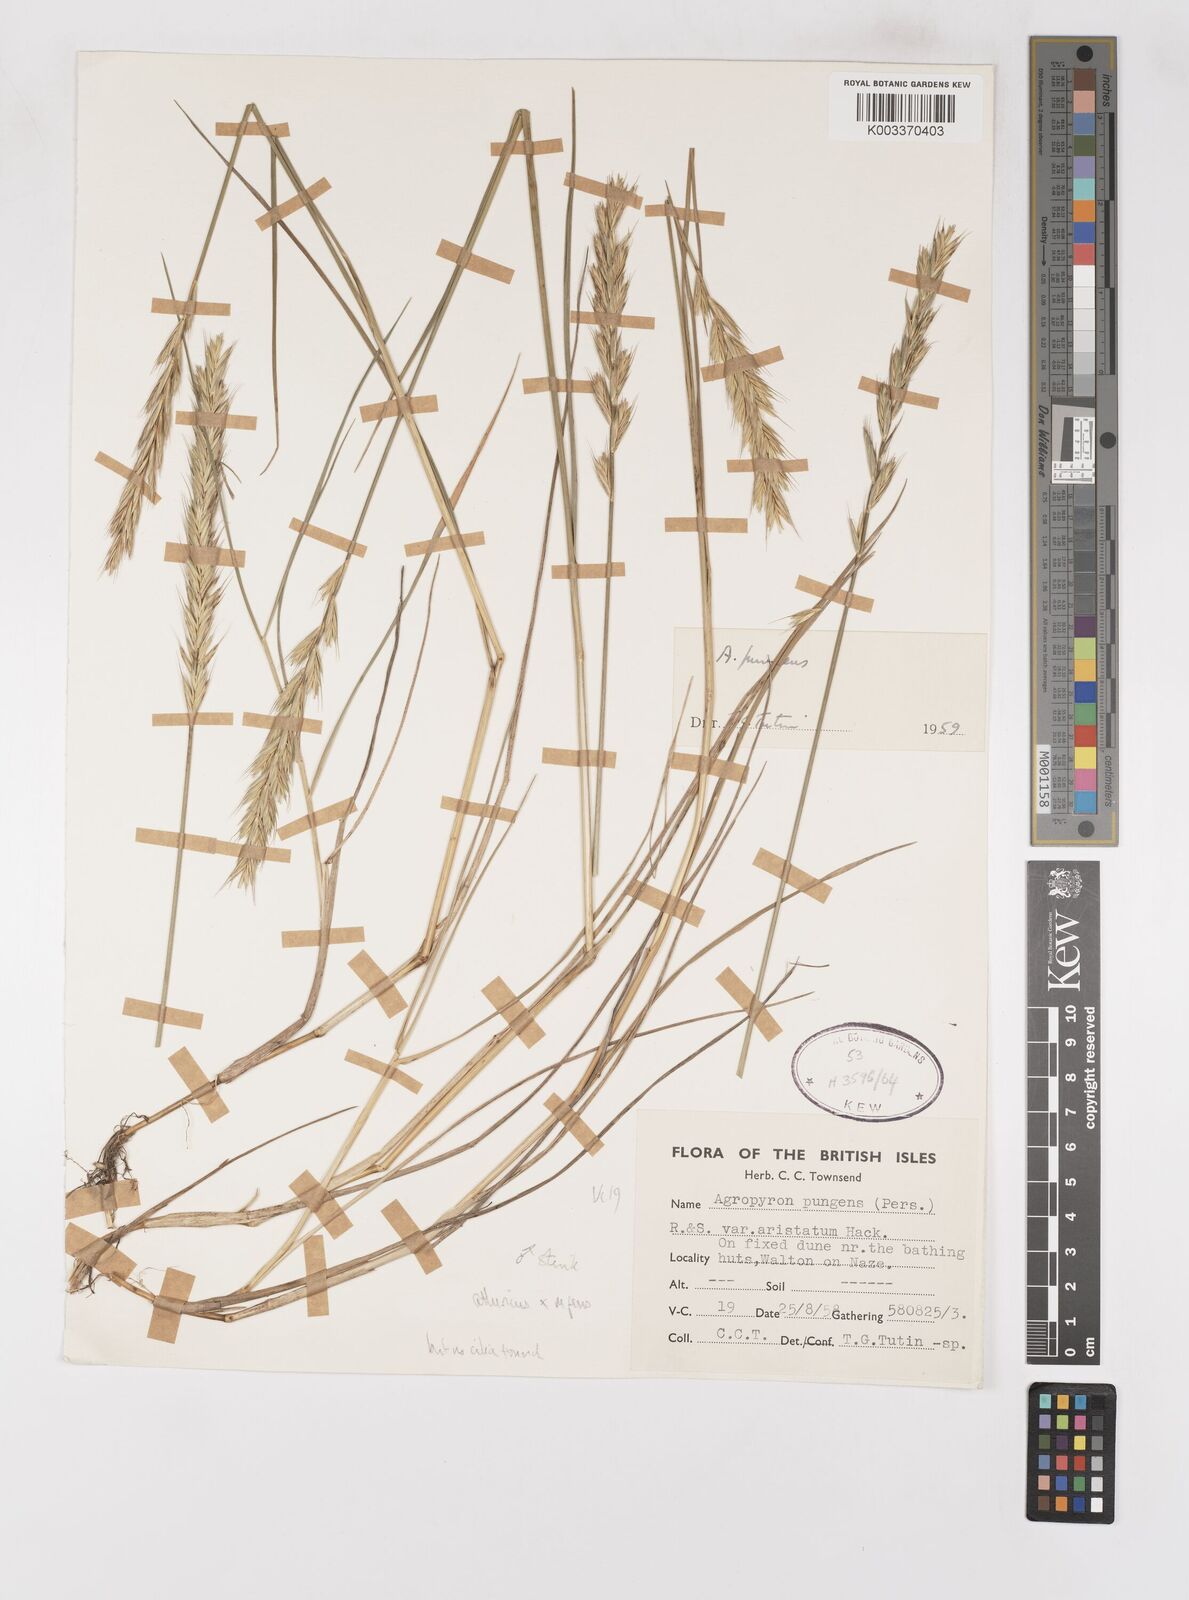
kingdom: Plantae
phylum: Tracheophyta
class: Liliopsida
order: Poales
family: Poaceae
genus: Elymus
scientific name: Elymus oliveri
